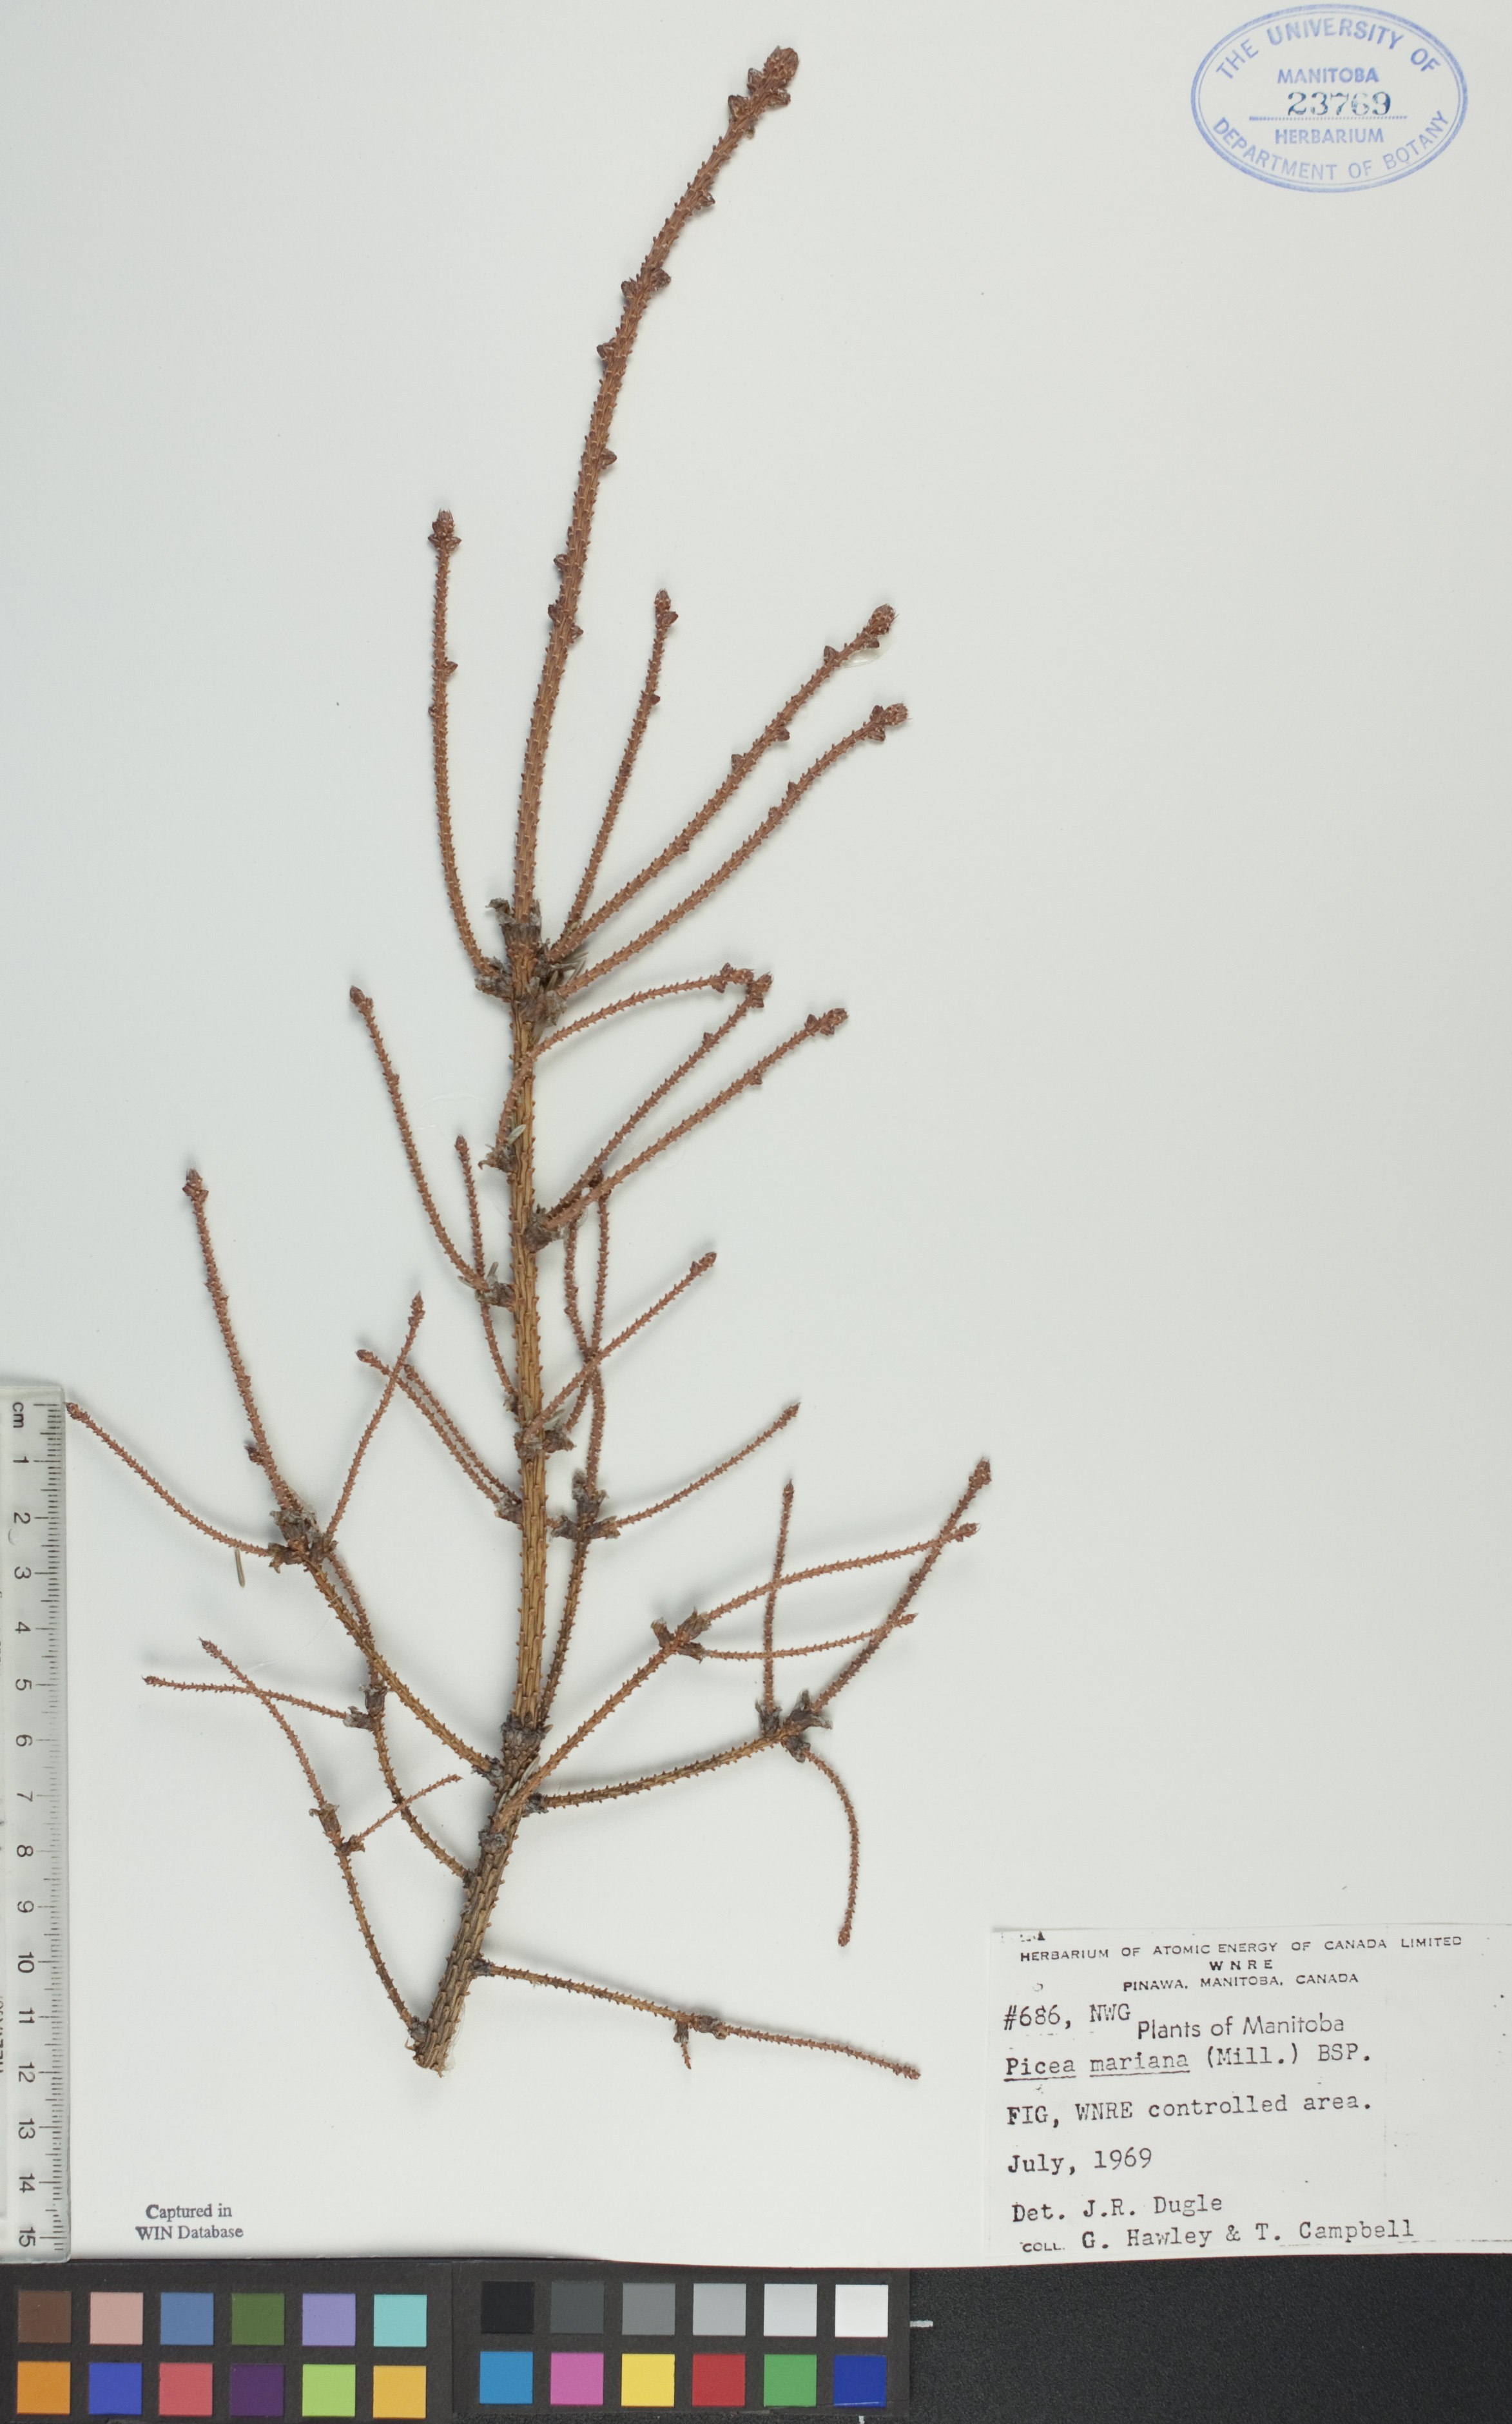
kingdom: Plantae
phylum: Tracheophyta
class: Pinopsida
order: Pinales
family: Pinaceae
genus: Picea
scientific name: Picea mariana
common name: Black spruce
